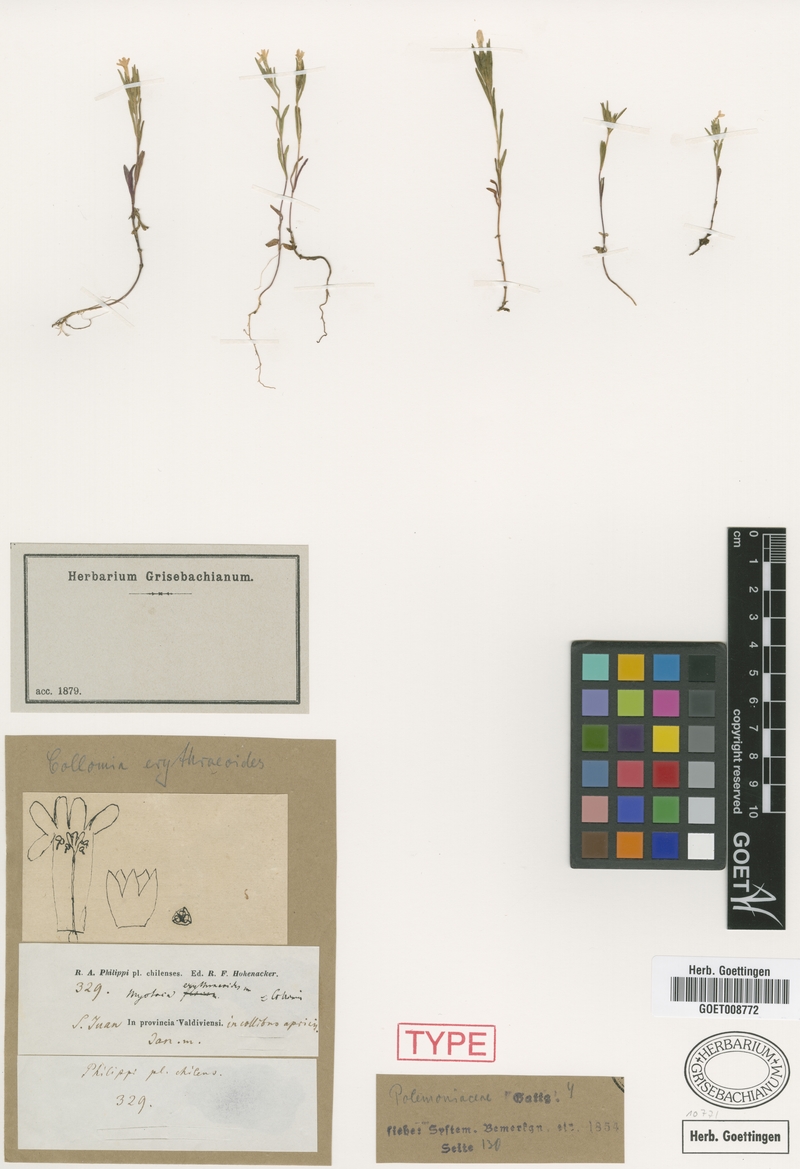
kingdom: Plantae
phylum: Tracheophyta
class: Magnoliopsida
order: Ericales
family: Polemoniaceae
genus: Collomia
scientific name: Collomia biflora
